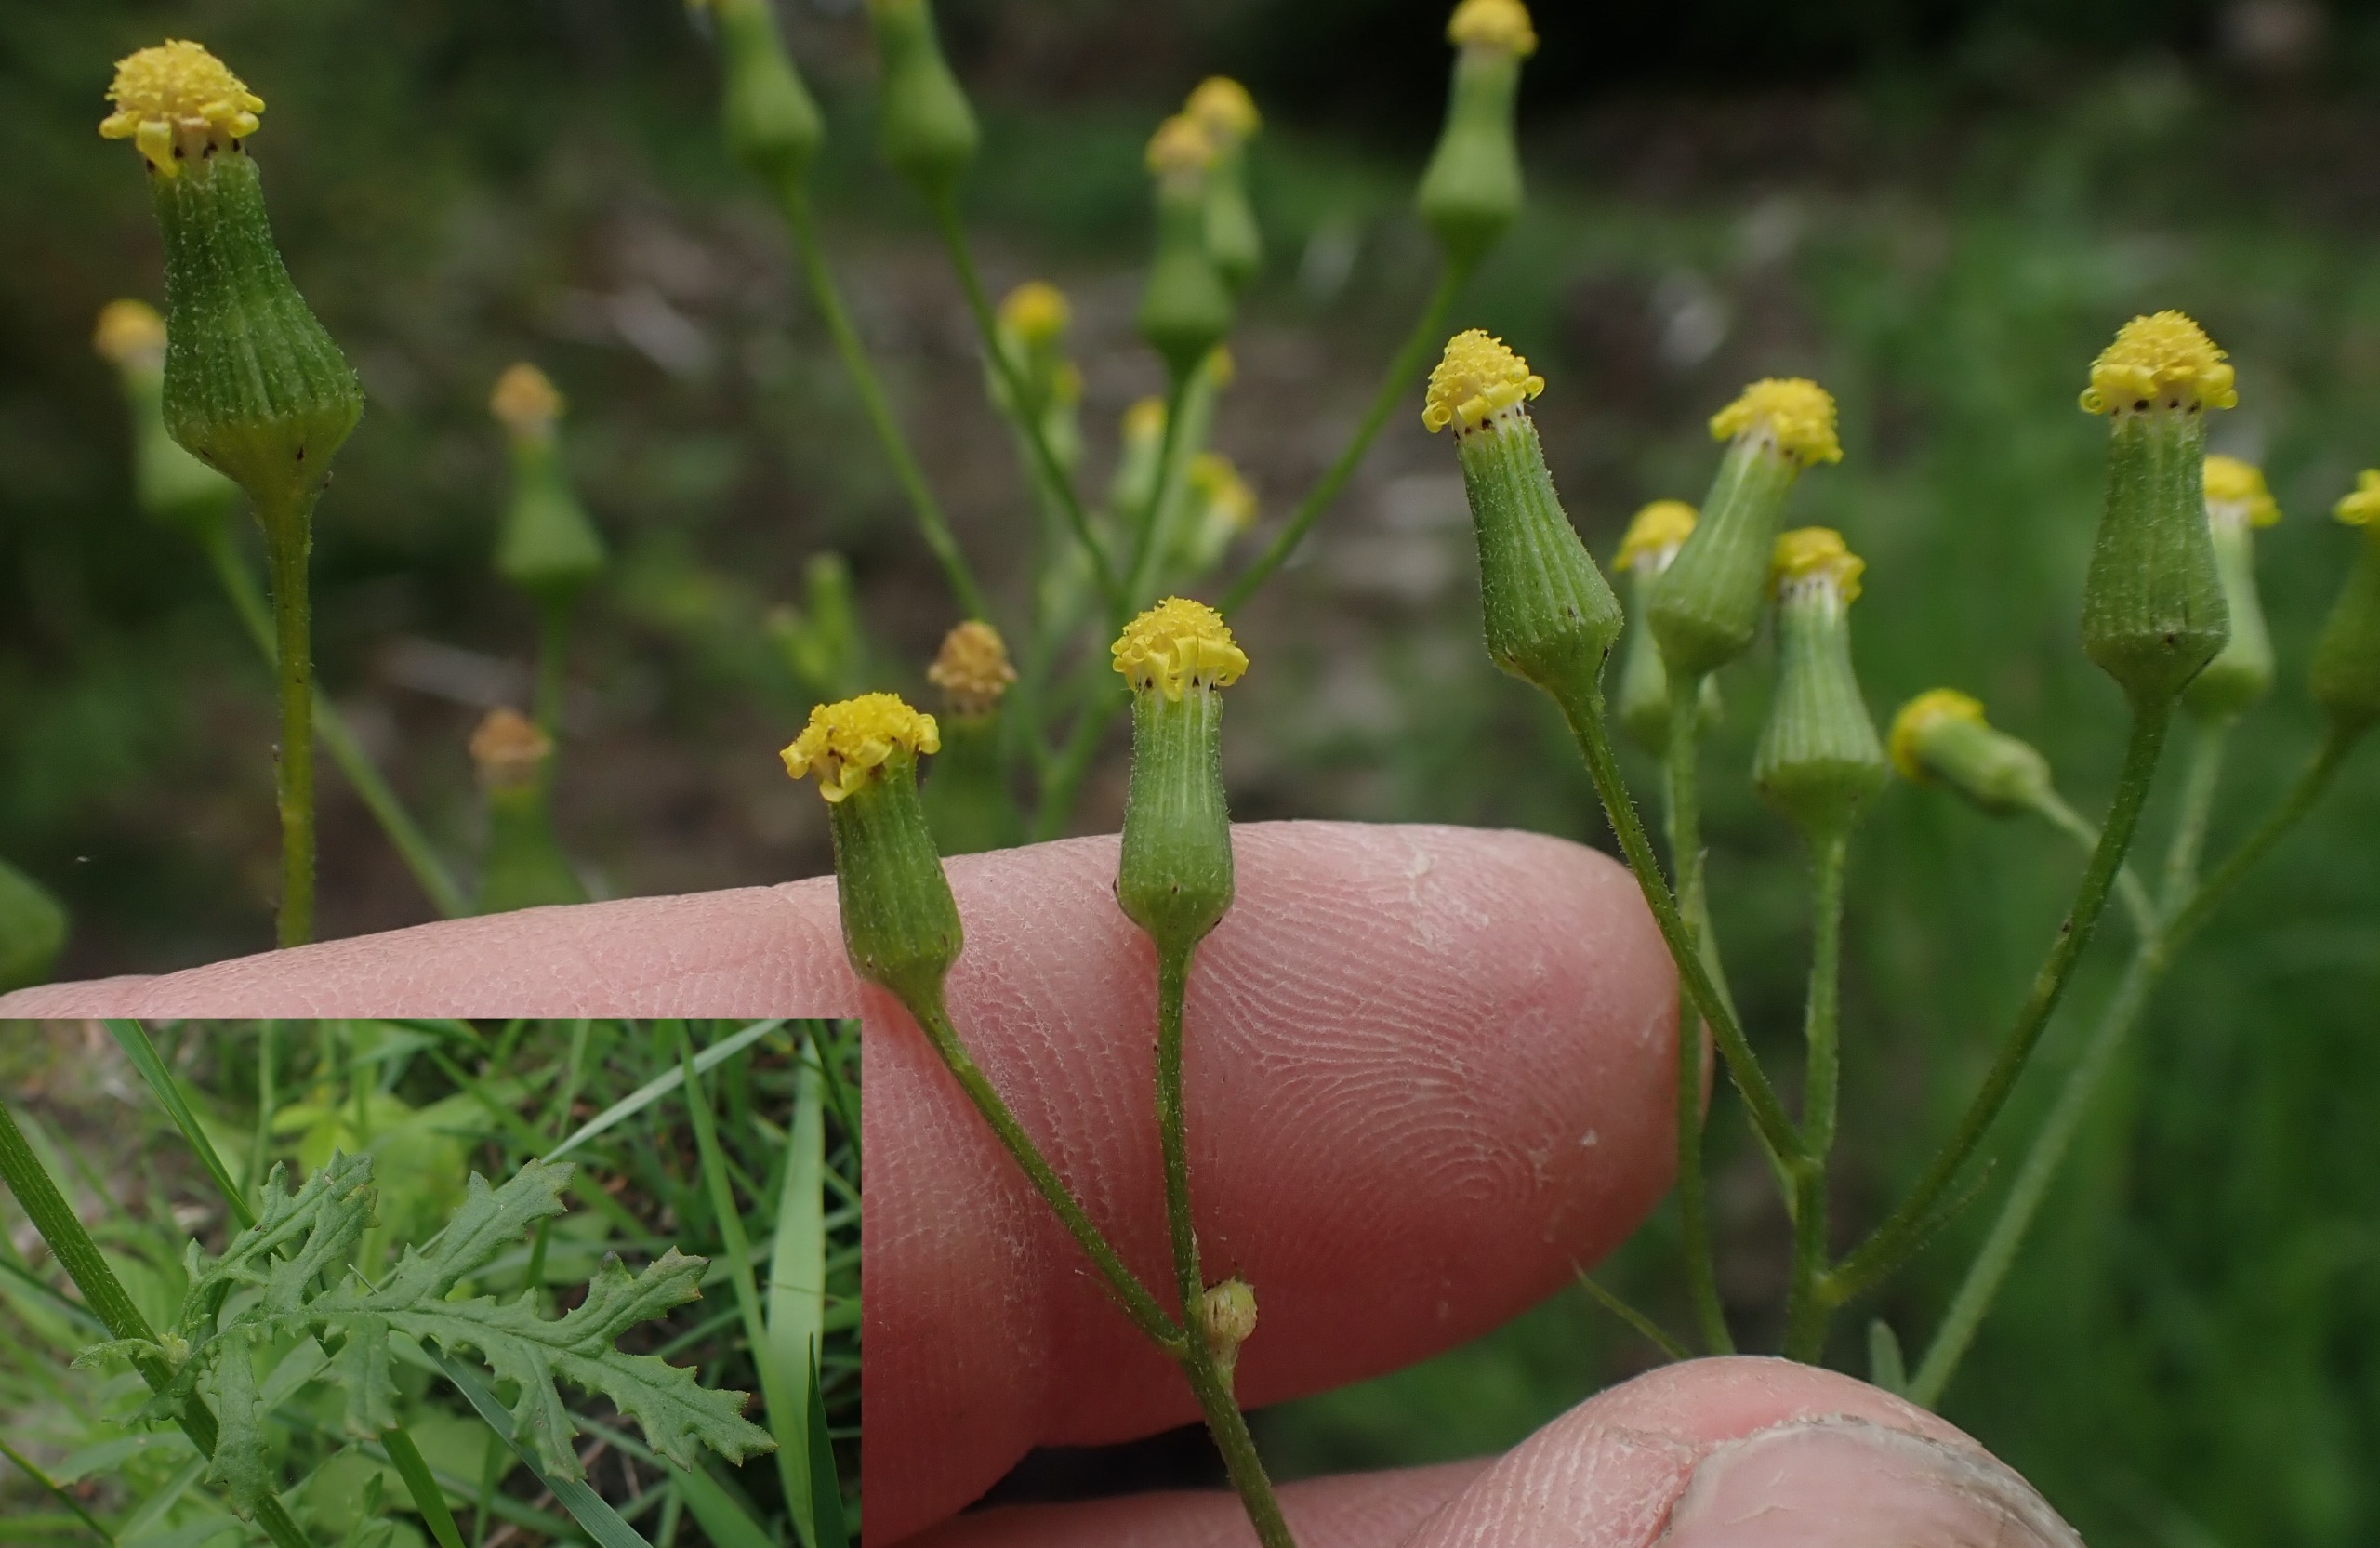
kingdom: Plantae
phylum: Tracheophyta
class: Magnoliopsida
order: Asterales
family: Asteraceae
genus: Senecio
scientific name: Senecio sylvaticus
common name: Skov-brandbæger
